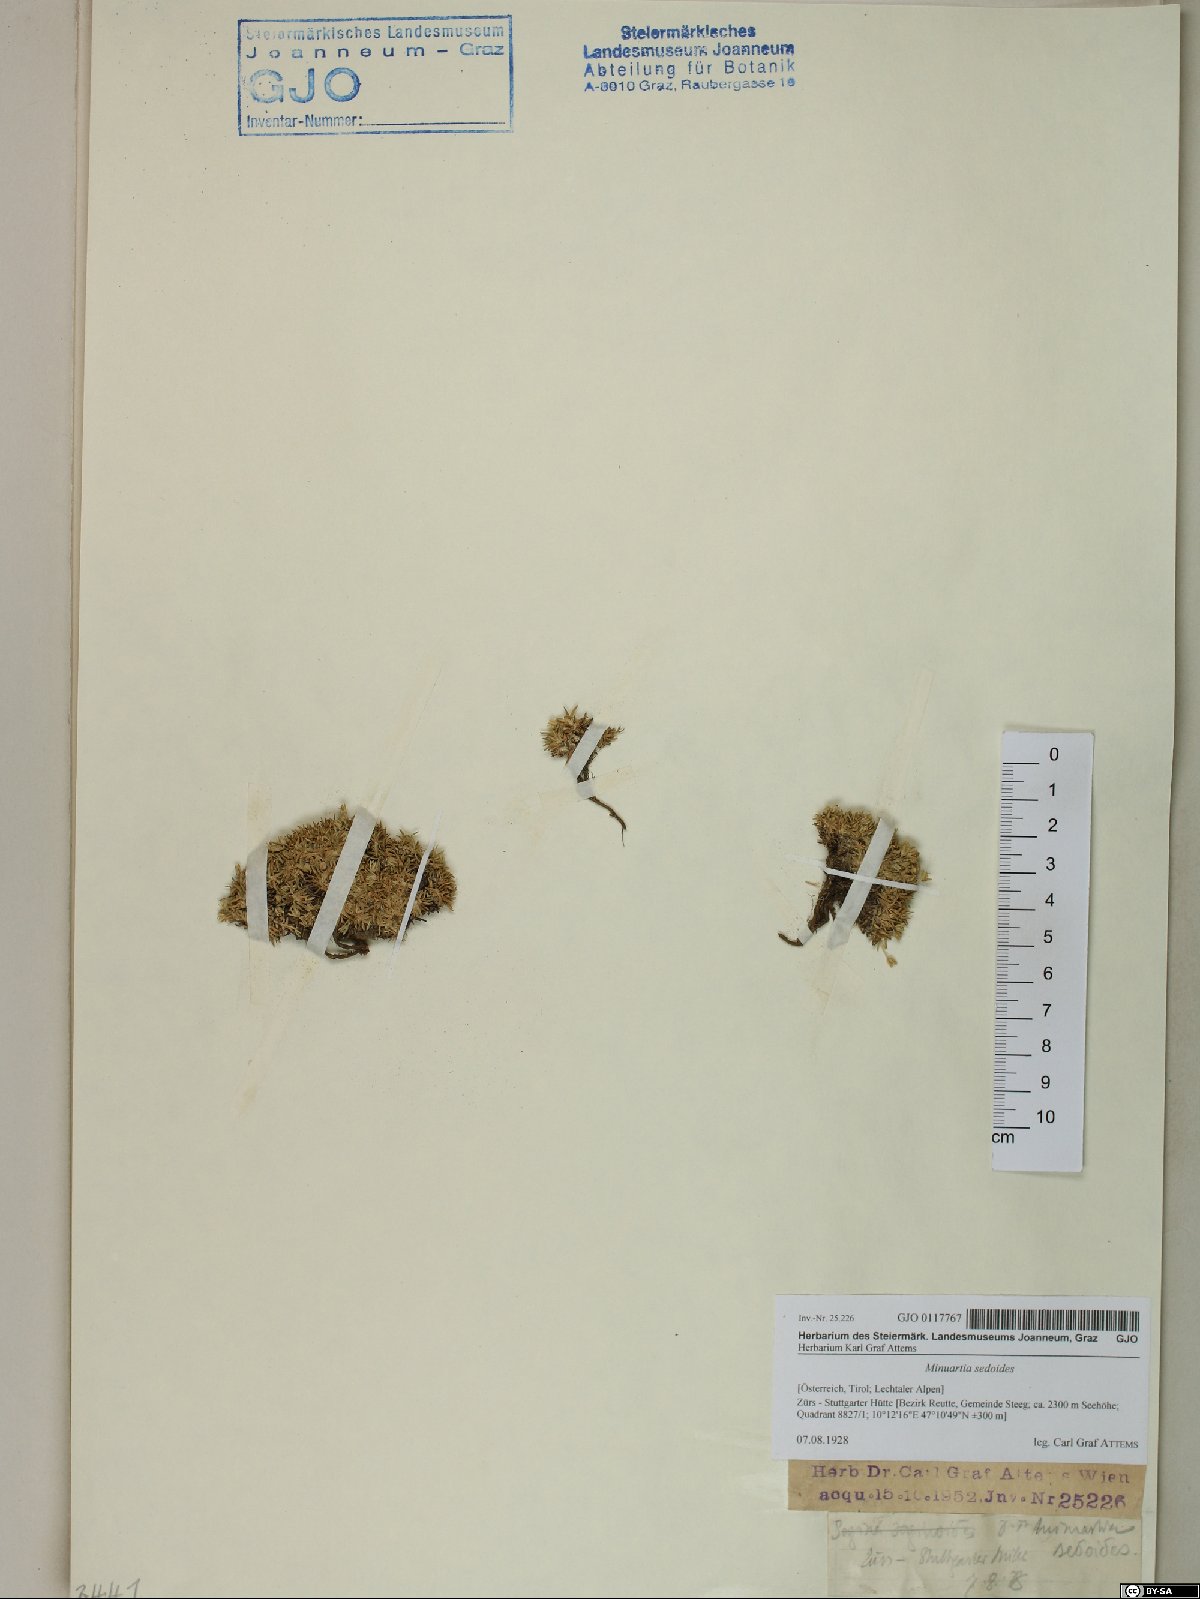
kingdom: Plantae
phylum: Tracheophyta
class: Magnoliopsida
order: Caryophyllales
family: Caryophyllaceae
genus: Cherleria
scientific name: Cherleria sedoides
